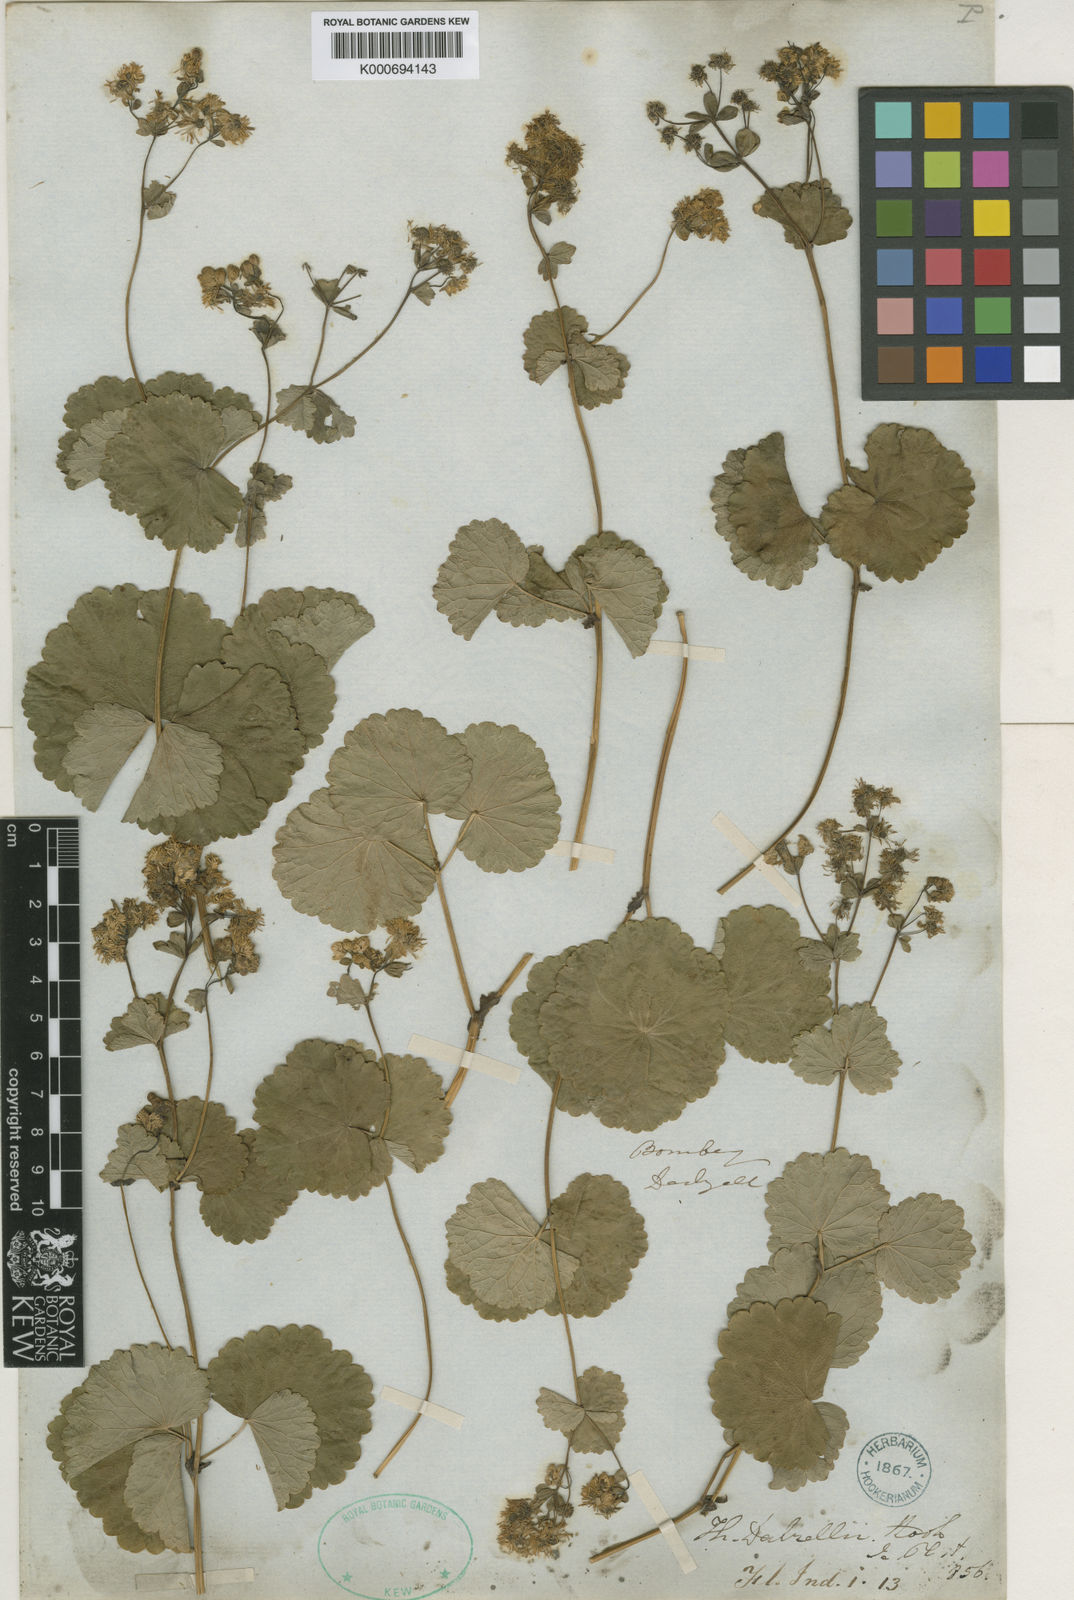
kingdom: Plantae
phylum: Tracheophyta
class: Magnoliopsida
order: Ranunculales
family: Ranunculaceae
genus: Thalictrum
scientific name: Thalictrum dalzellii
